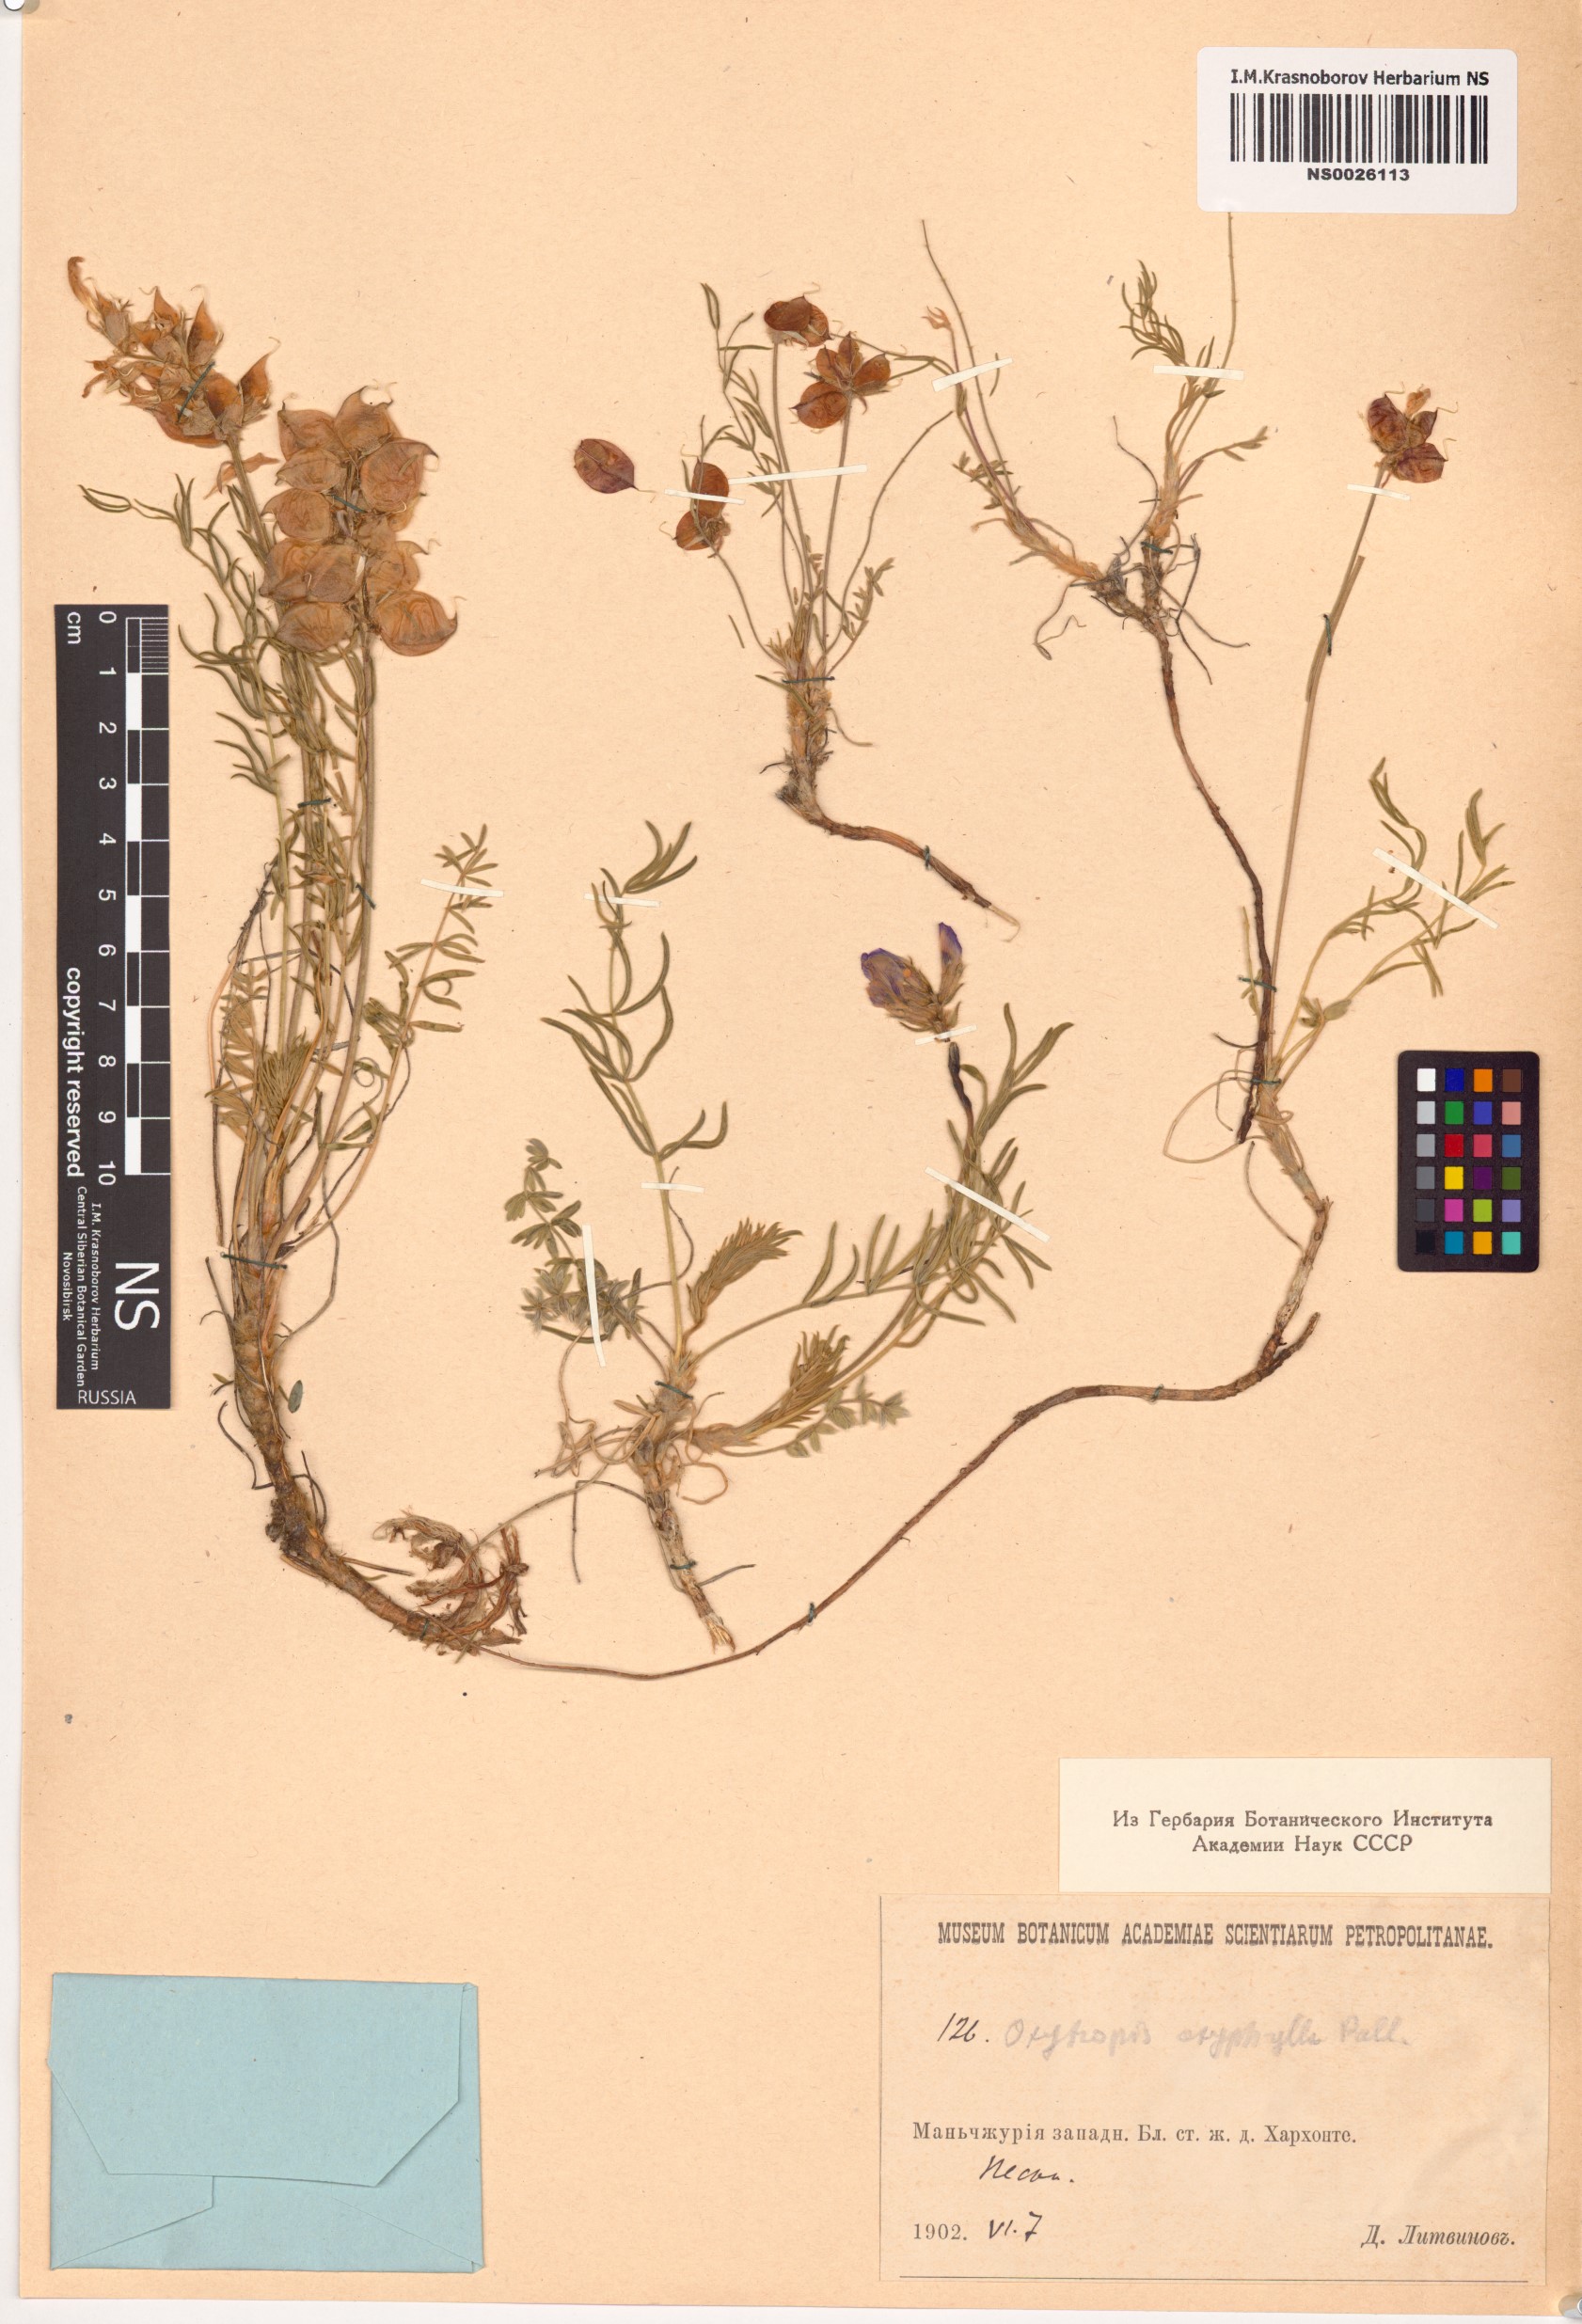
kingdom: Plantae
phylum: Tracheophyta
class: Magnoliopsida
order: Fabales
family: Fabaceae
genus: Oxytropis
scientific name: Oxytropis oxyphylla
